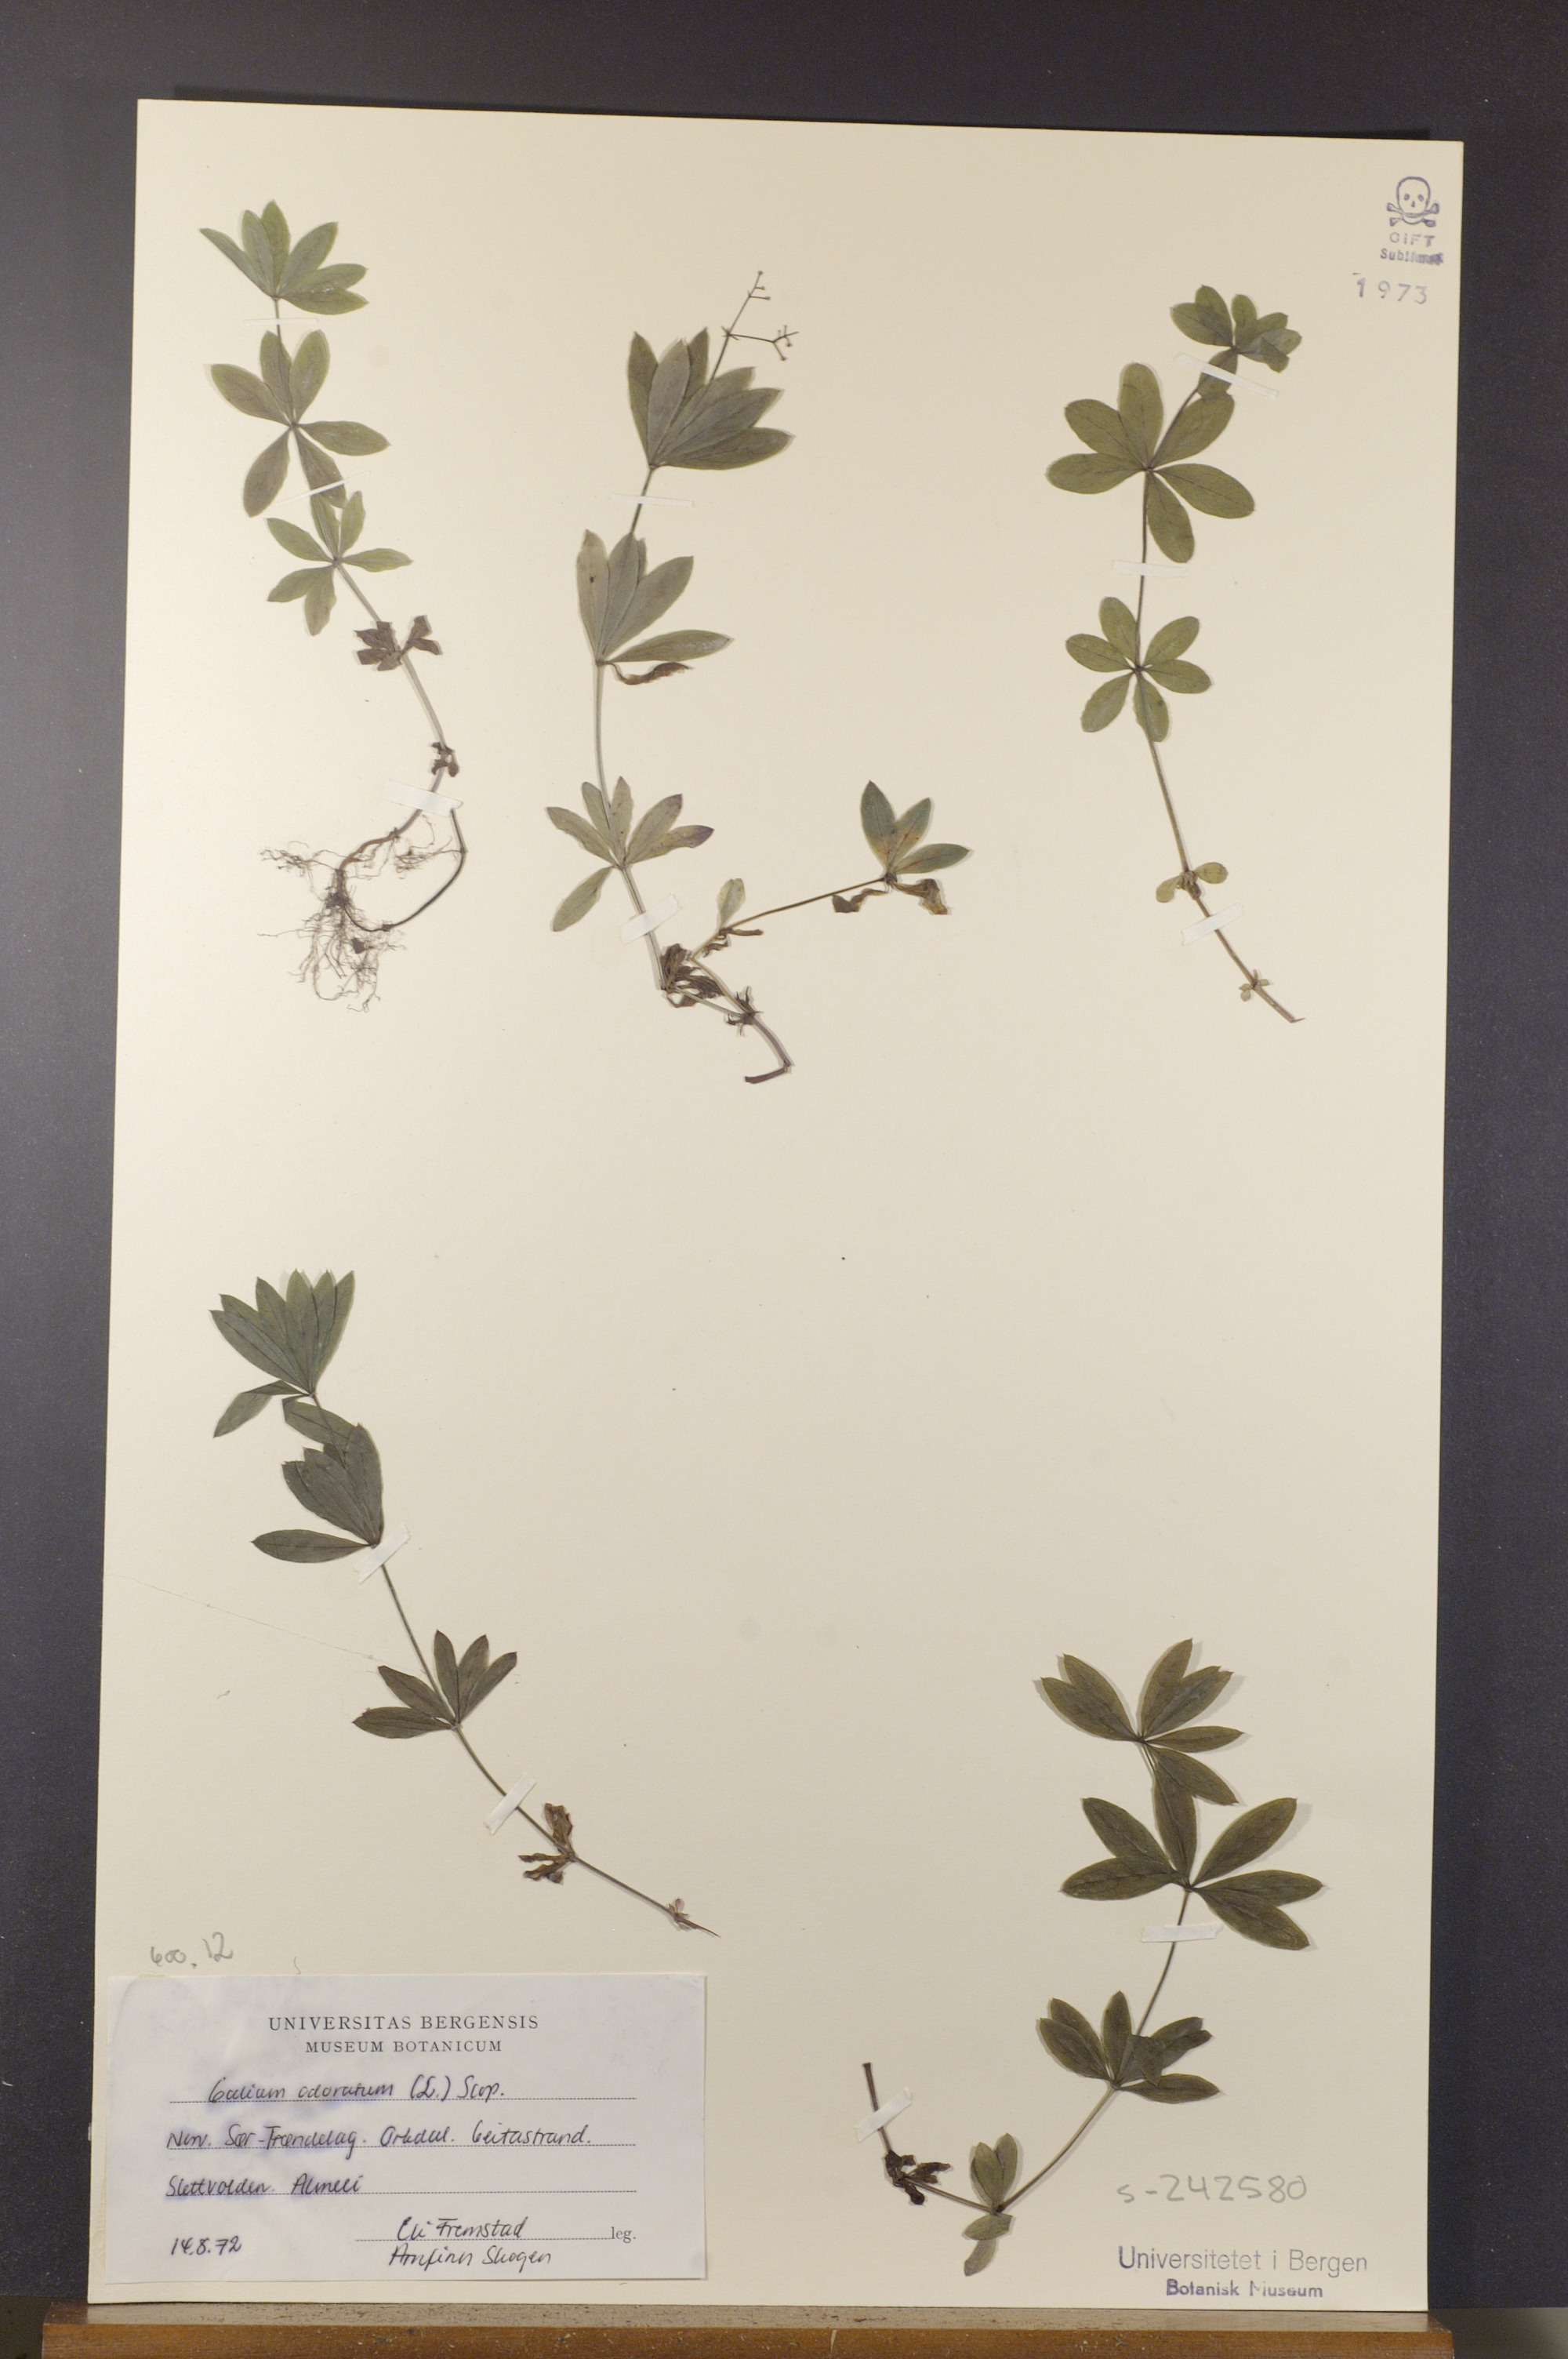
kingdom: Plantae
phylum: Tracheophyta
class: Magnoliopsida
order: Gentianales
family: Rubiaceae
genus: Galium
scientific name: Galium odoratum
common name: Sweet woodruff
